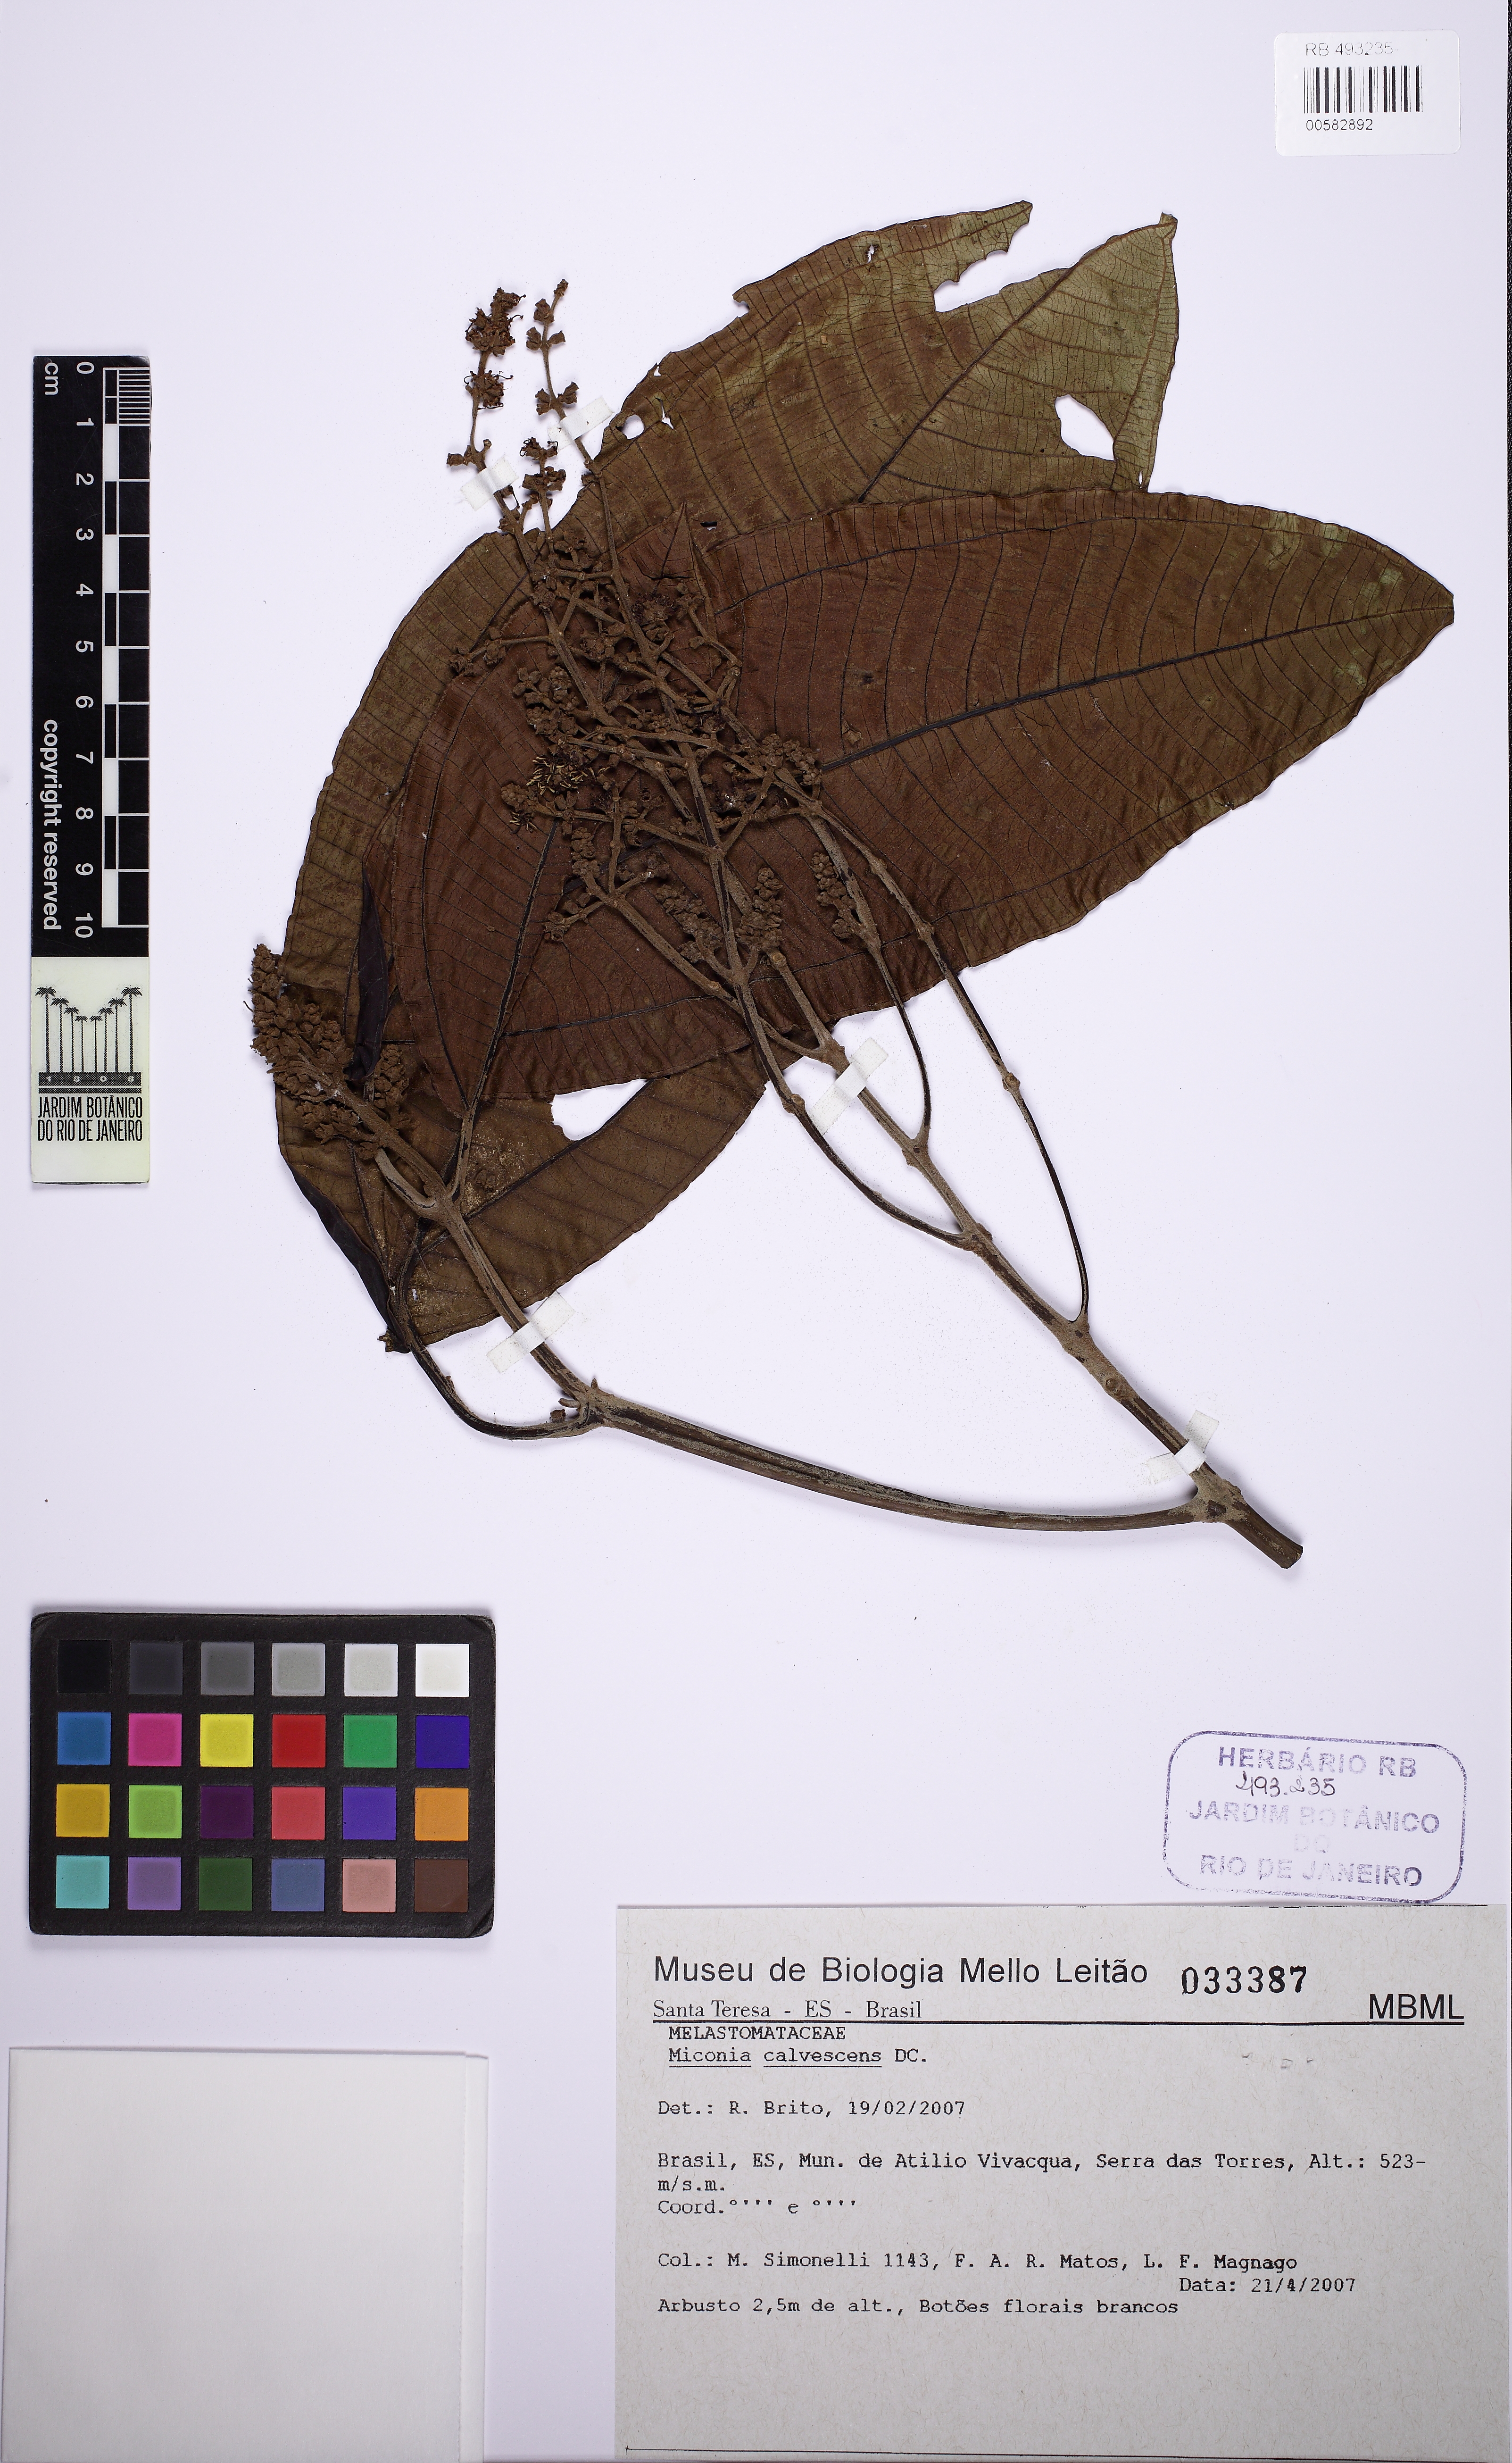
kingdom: Plantae
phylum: Tracheophyta
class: Magnoliopsida
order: Myrtales
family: Melastomataceae
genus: Miconia
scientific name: Miconia calvescens
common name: Purple plague
